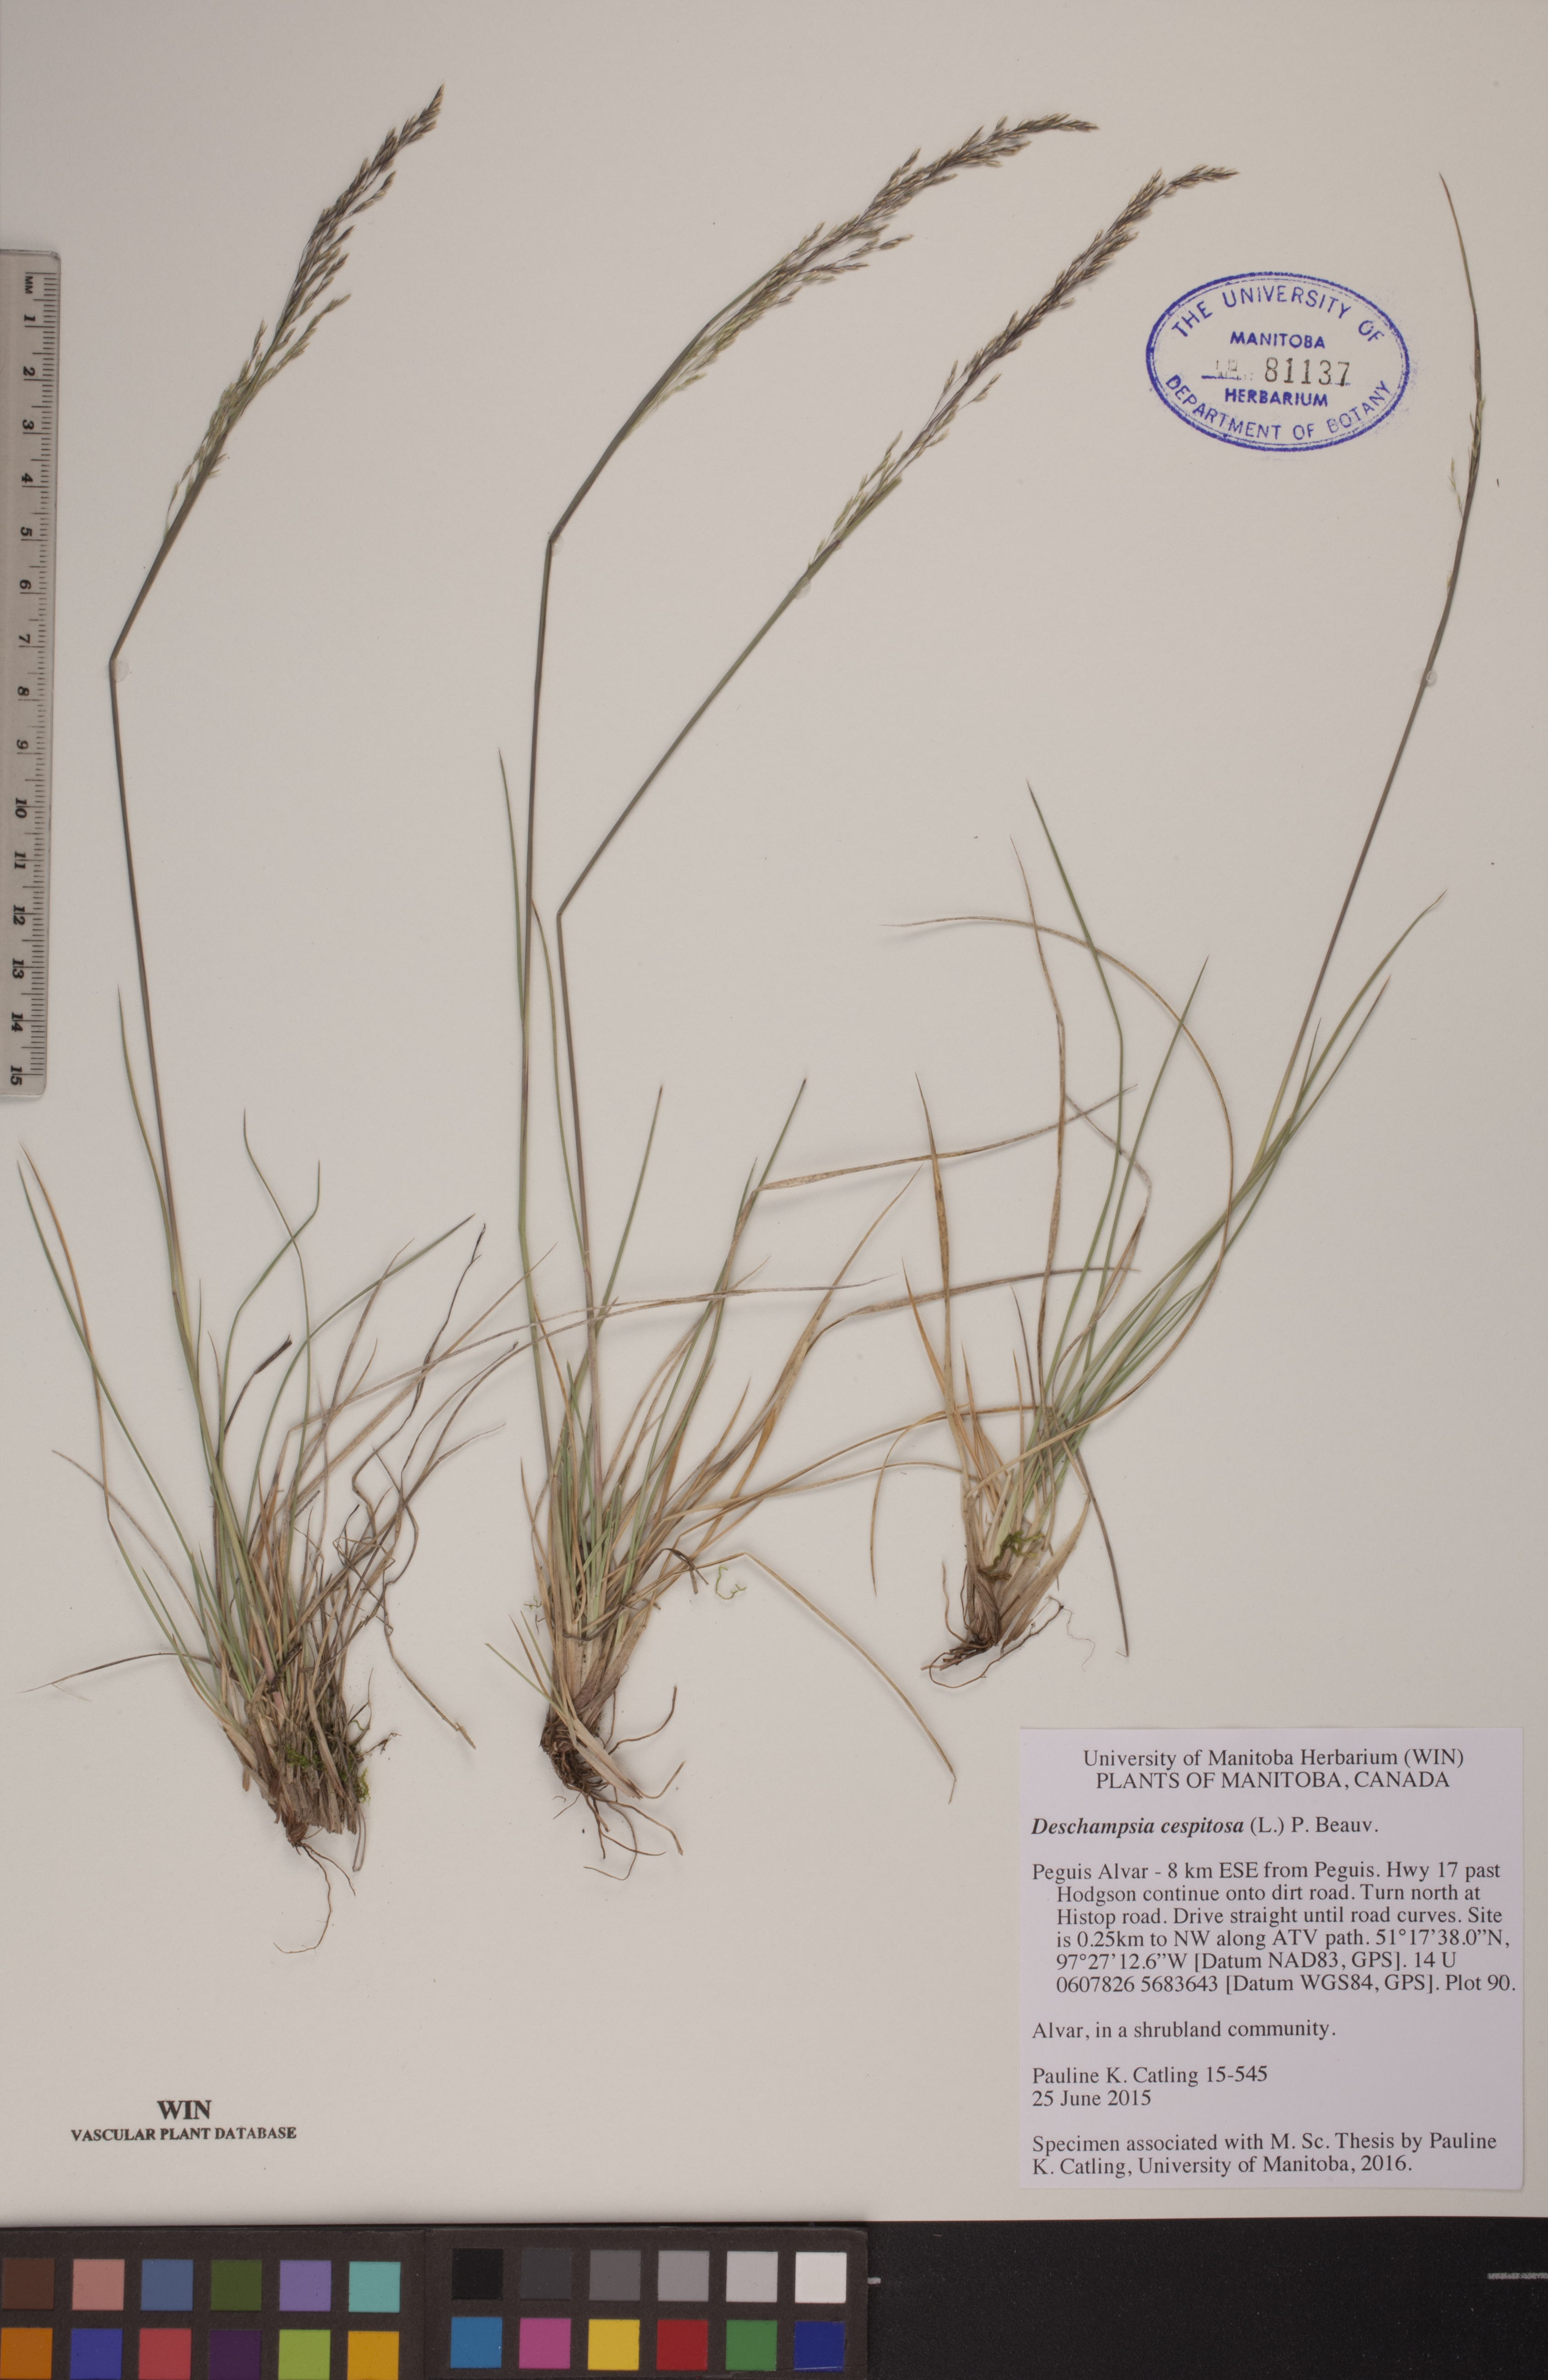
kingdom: Plantae
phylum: Tracheophyta
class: Liliopsida
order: Poales
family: Poaceae
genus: Deschampsia
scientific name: Deschampsia cespitosa
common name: Tufted hair-grass
